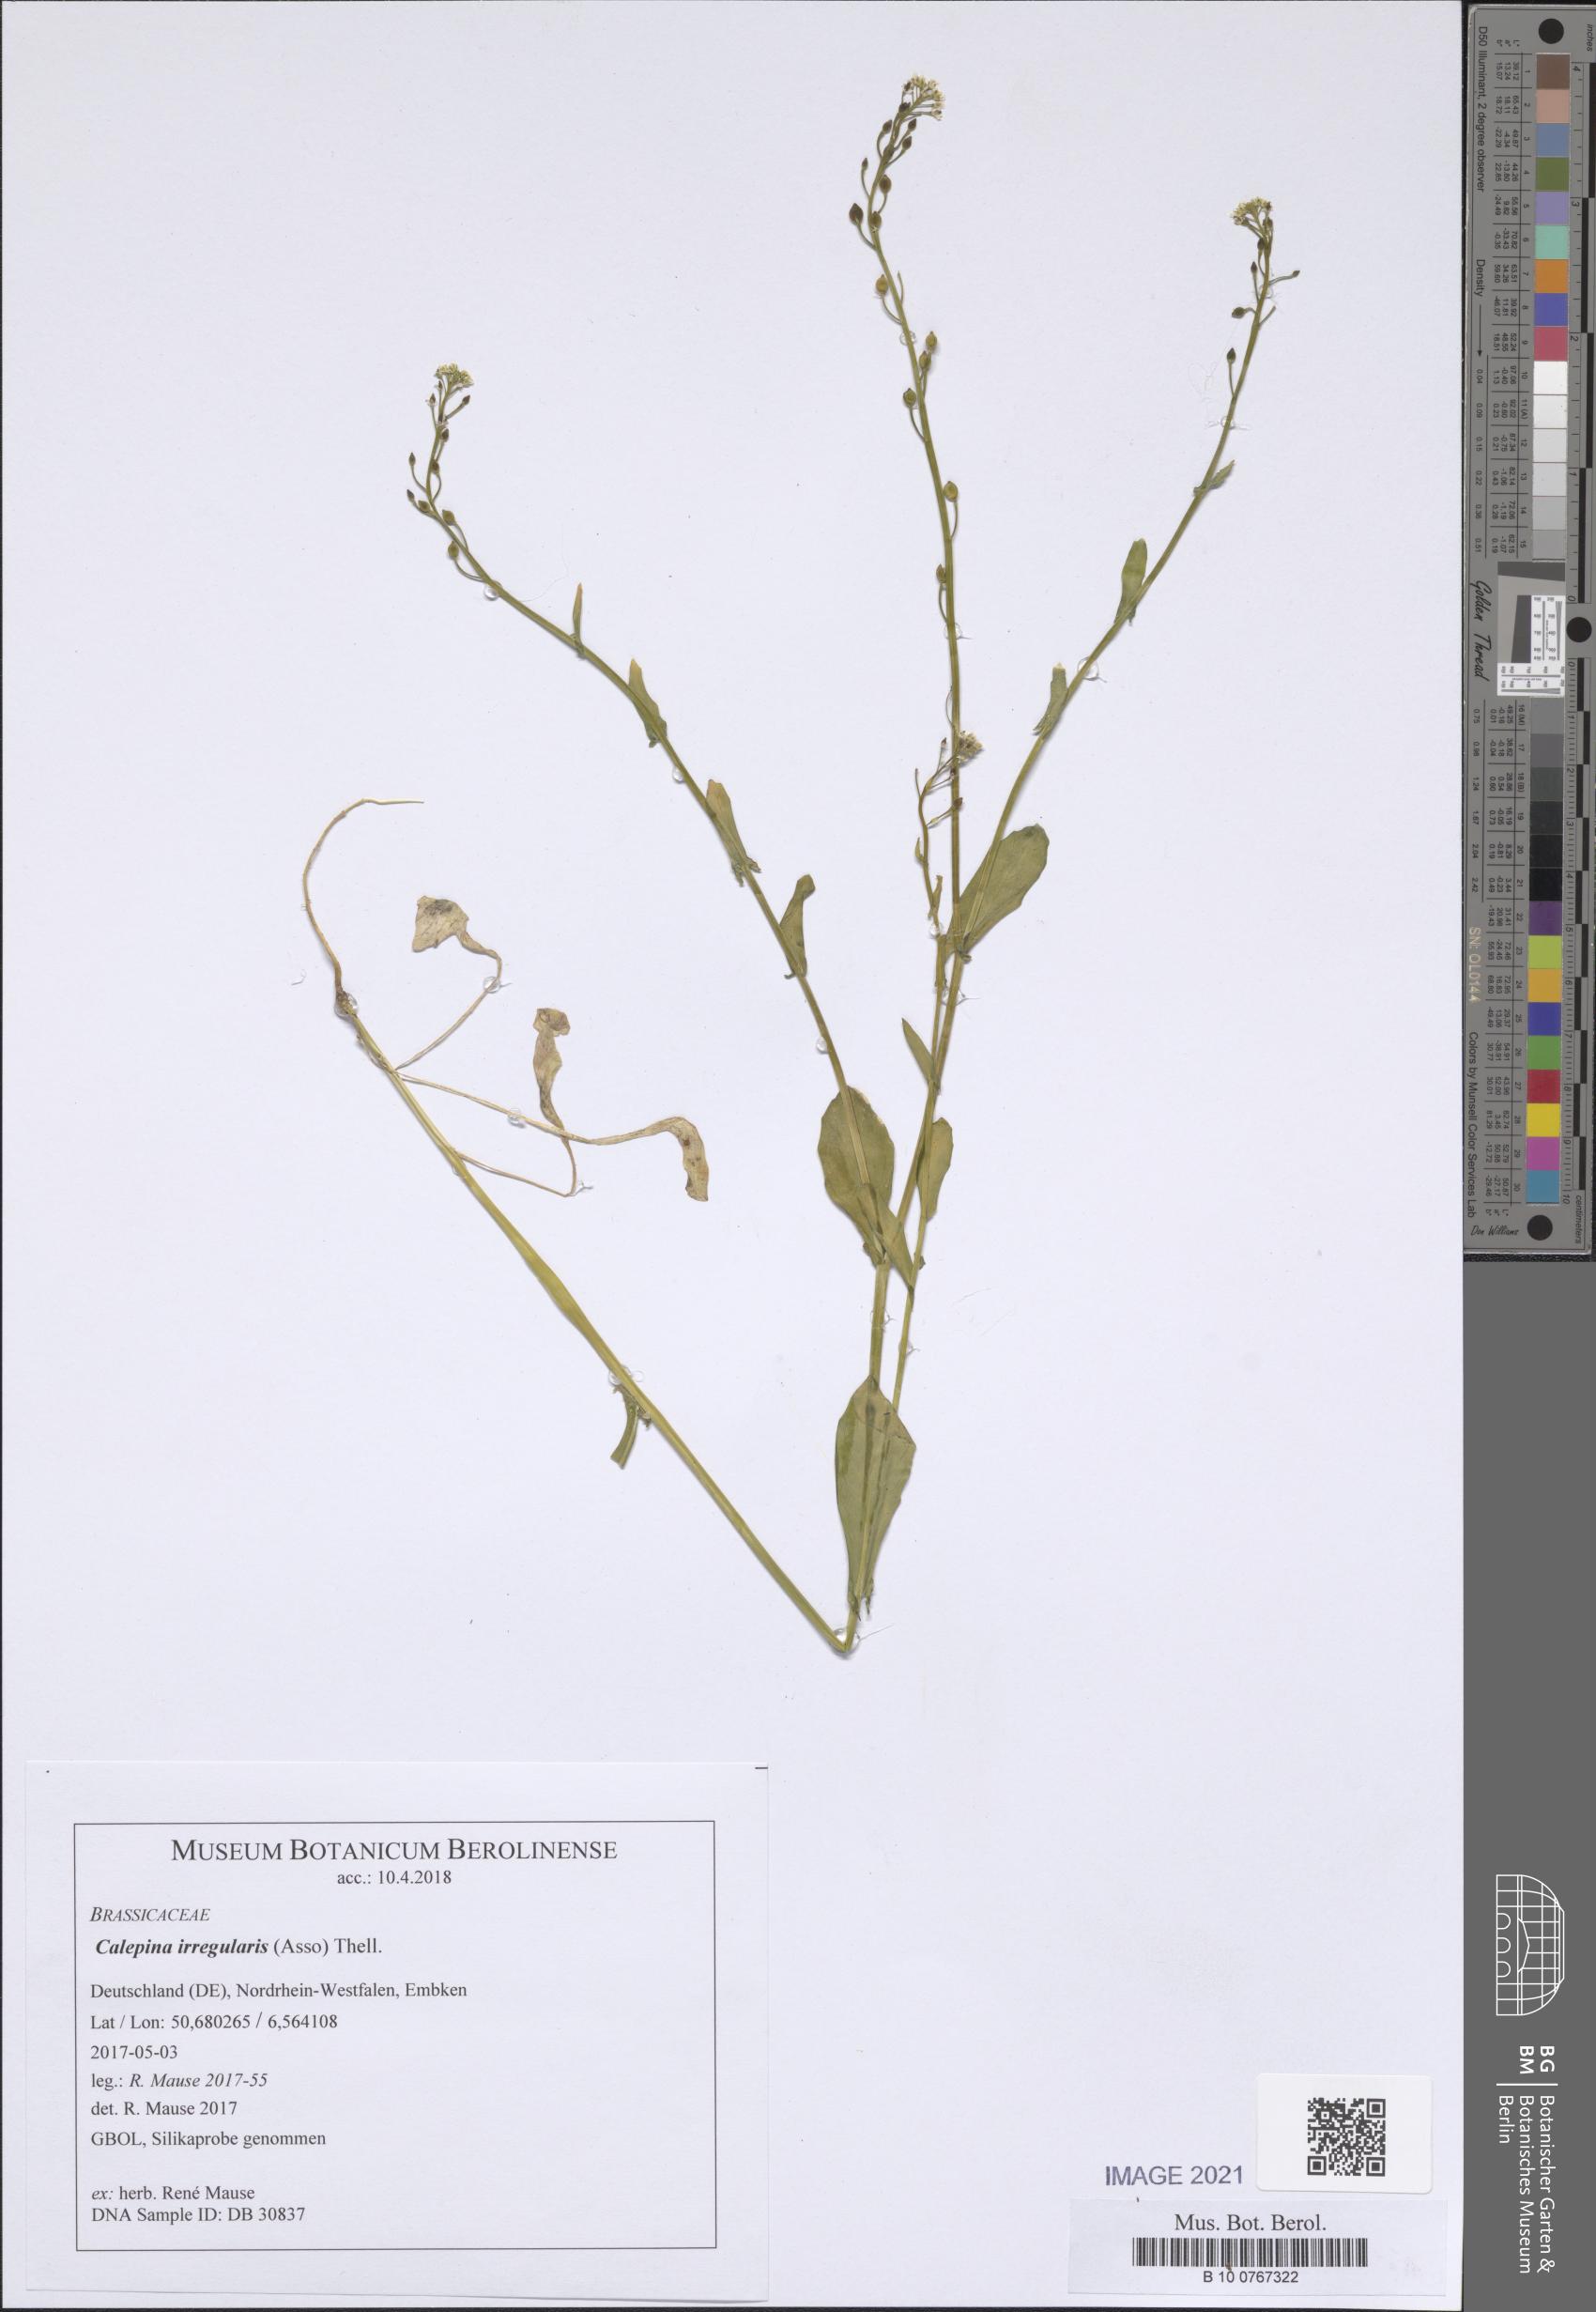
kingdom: Plantae
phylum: Tracheophyta
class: Magnoliopsida
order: Brassicales
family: Brassicaceae
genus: Calepina
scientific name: Calepina irregularis
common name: White ballmustard
